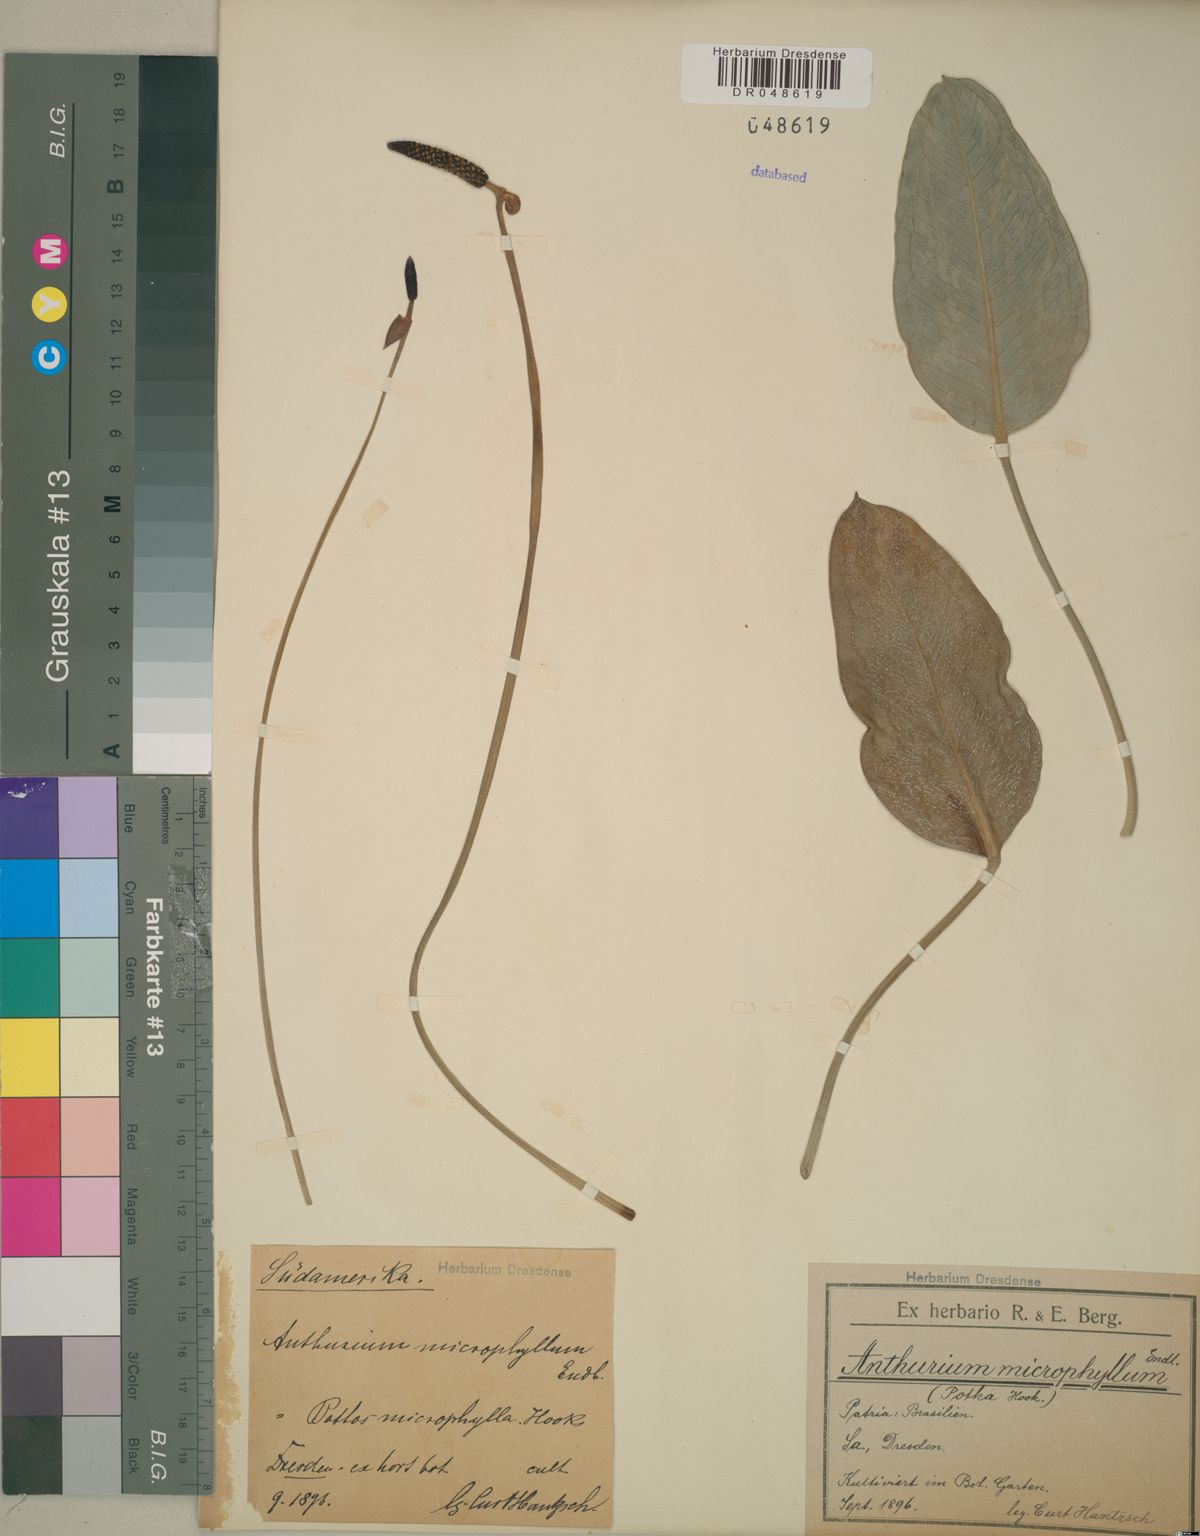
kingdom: Plantae
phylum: Tracheophyta
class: Liliopsida
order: Alismatales
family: Araceae
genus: Anthurium
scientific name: Anthurium microphyllum
